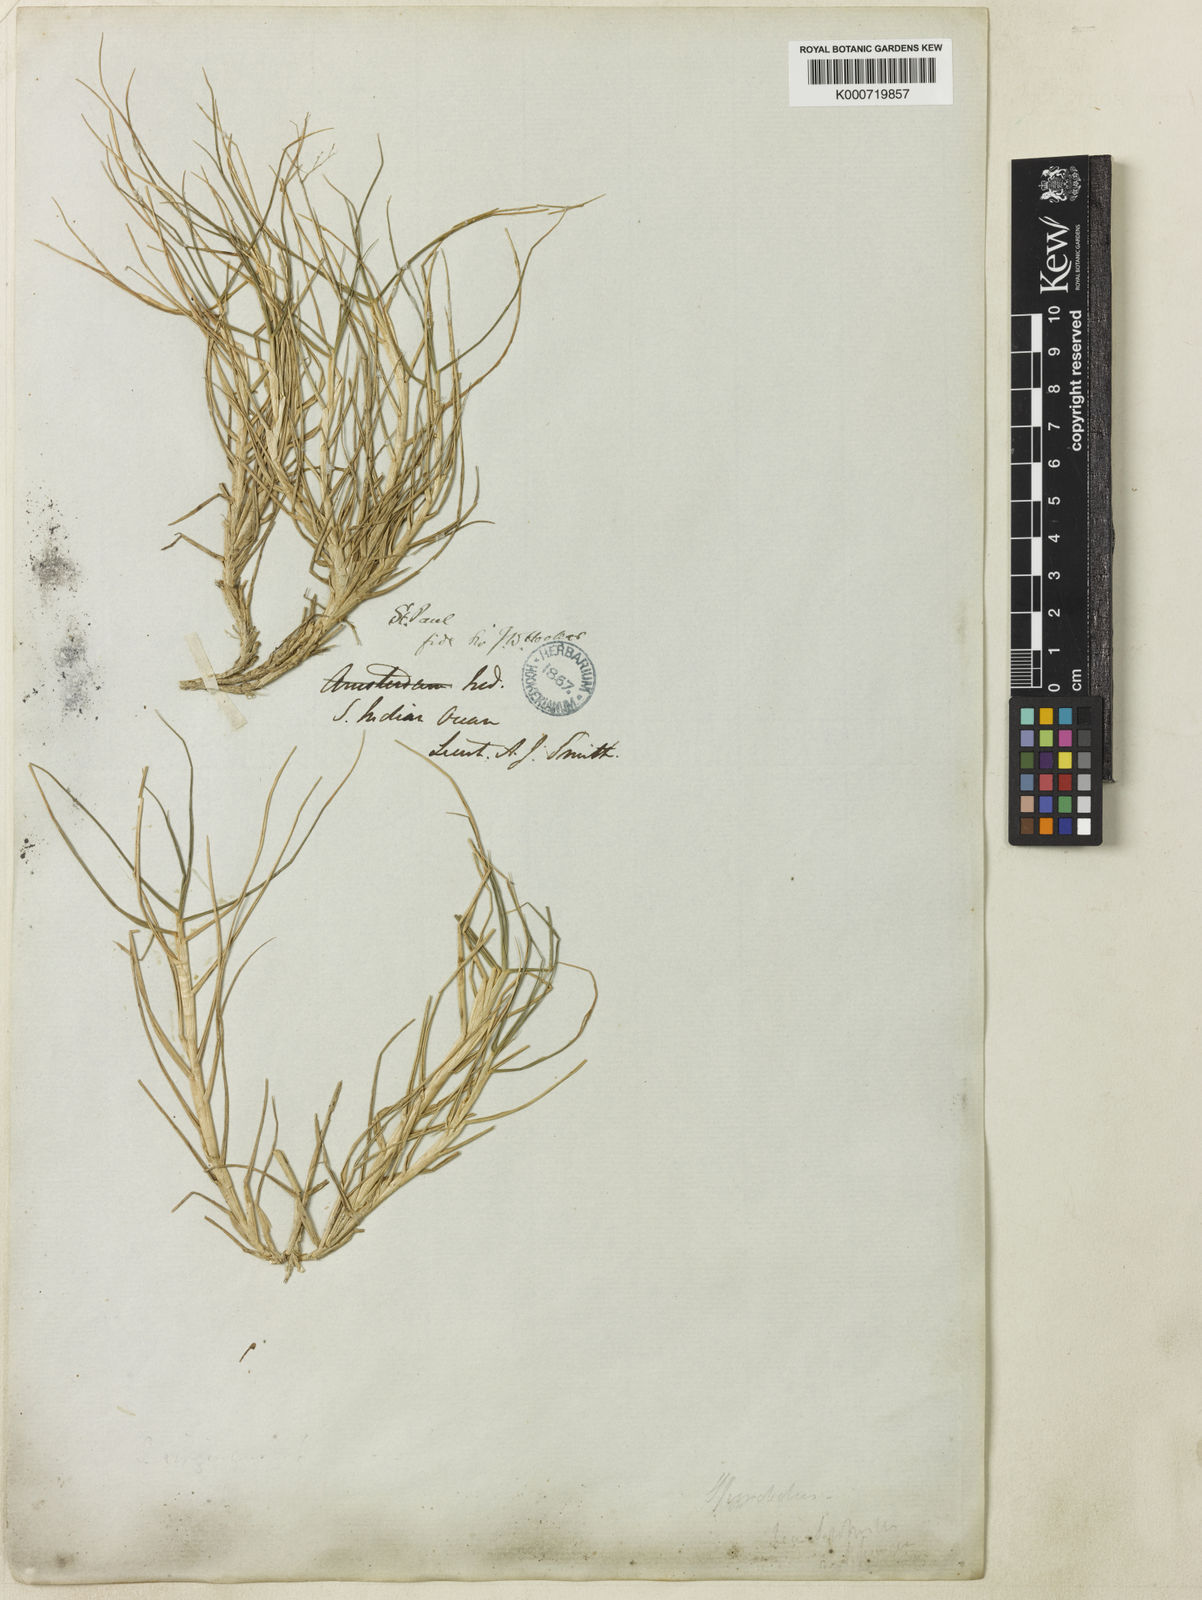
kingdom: Plantae
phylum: Tracheophyta
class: Liliopsida
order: Poales
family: Poaceae
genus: Pentameris
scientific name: Pentameris insularis
